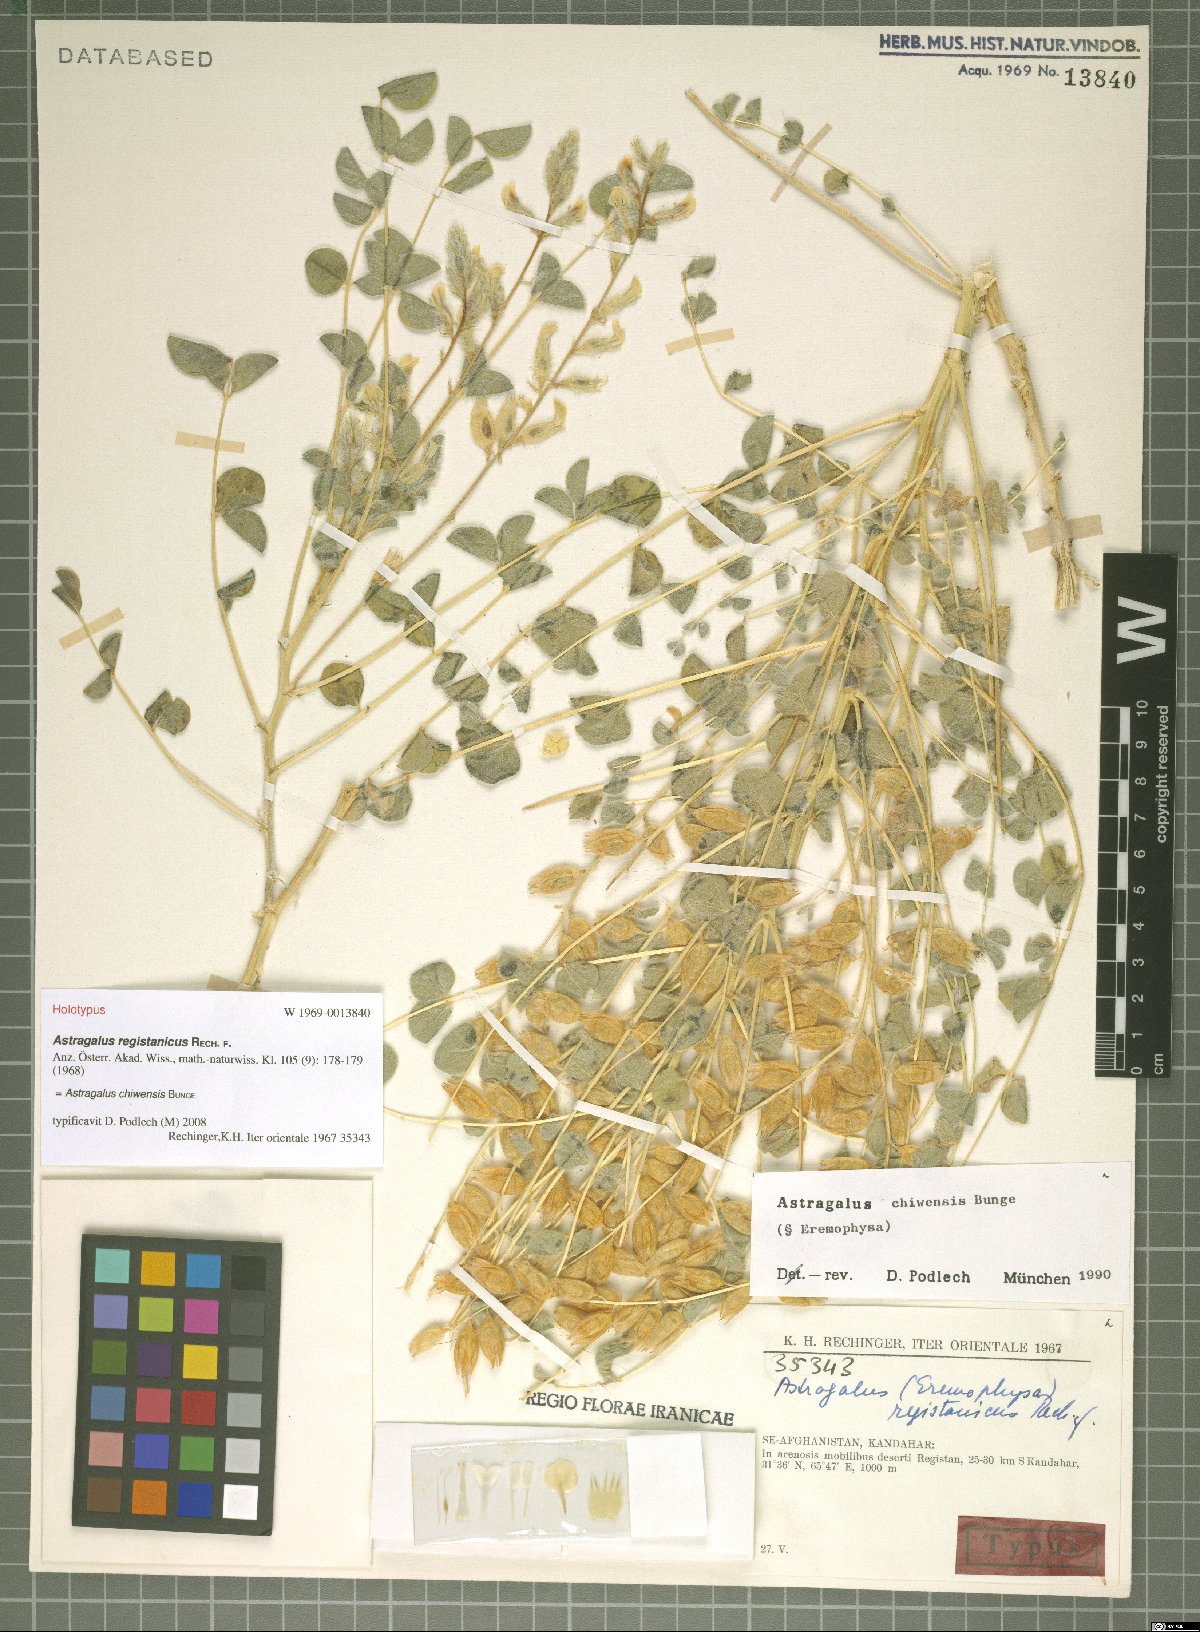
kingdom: Plantae
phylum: Tracheophyta
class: Magnoliopsida
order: Fabales
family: Fabaceae
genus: Astragalus
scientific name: Astragalus chiwensis
